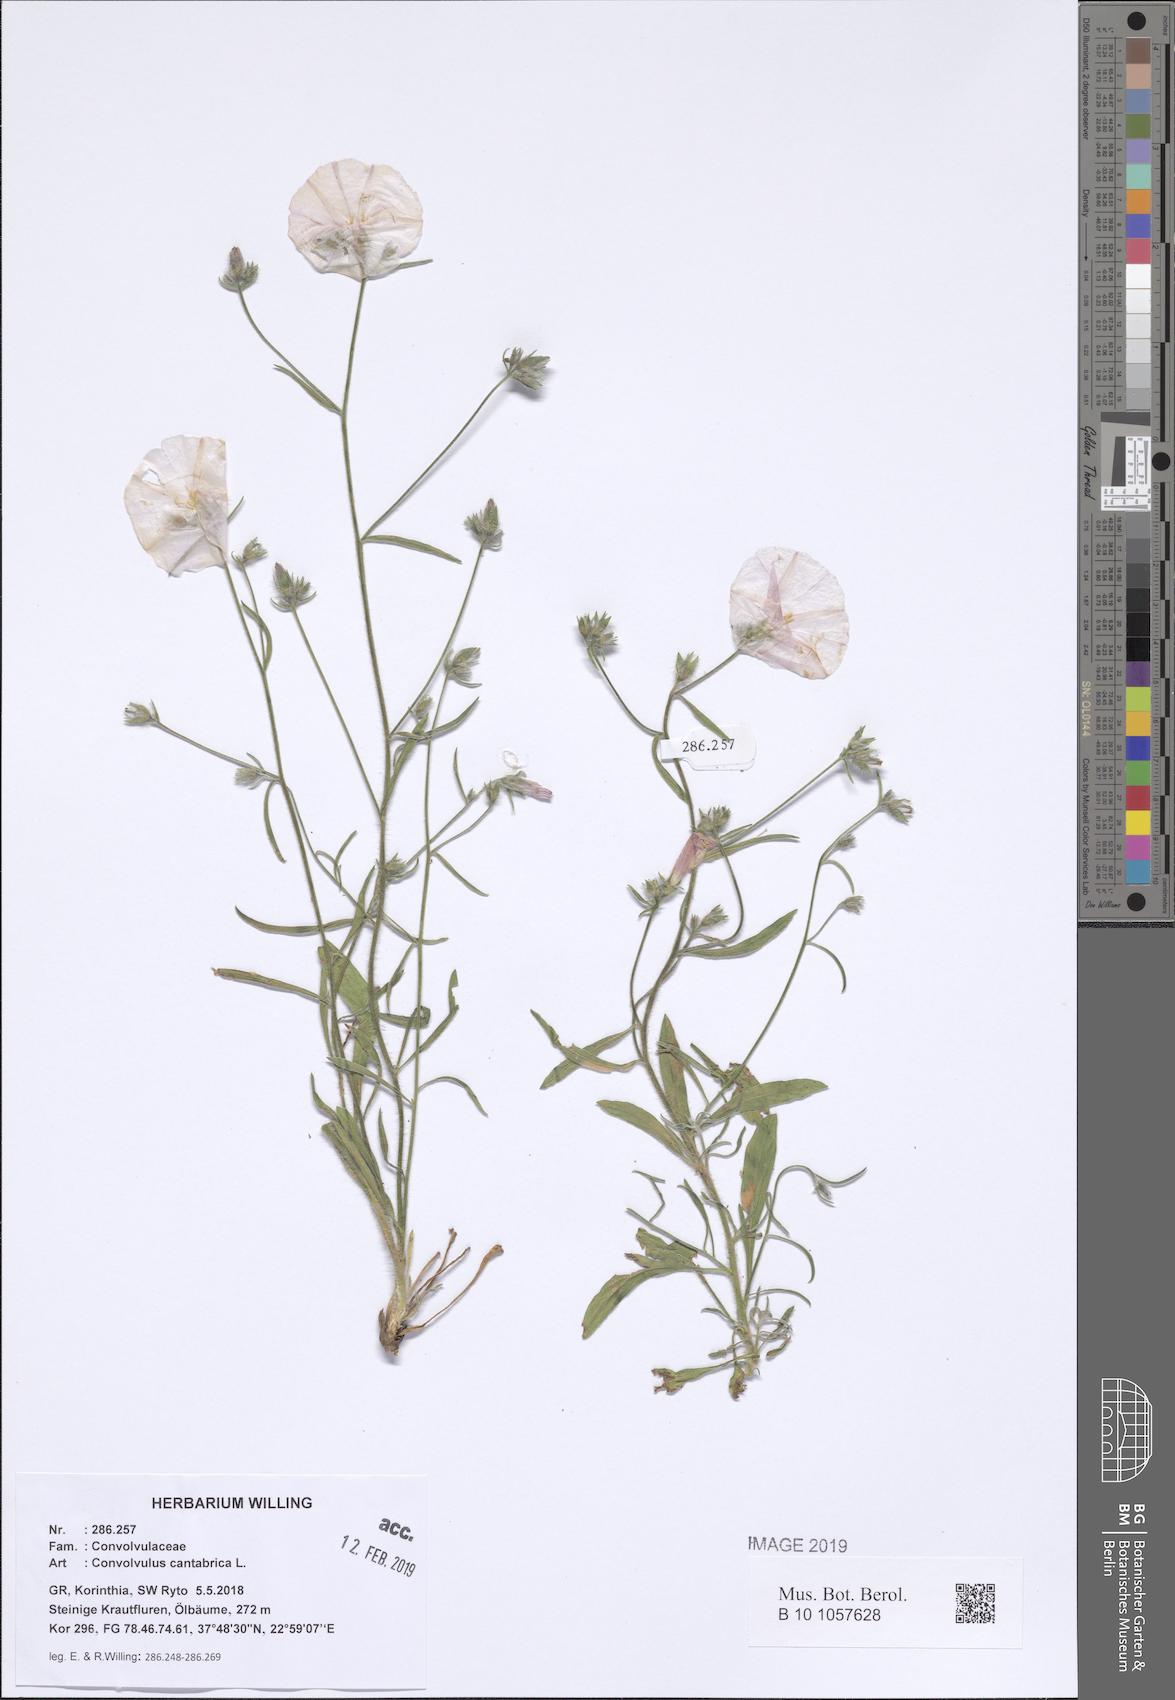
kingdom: Plantae
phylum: Tracheophyta
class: Magnoliopsida
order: Solanales
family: Convolvulaceae
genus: Convolvulus
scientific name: Convolvulus cantabrica
